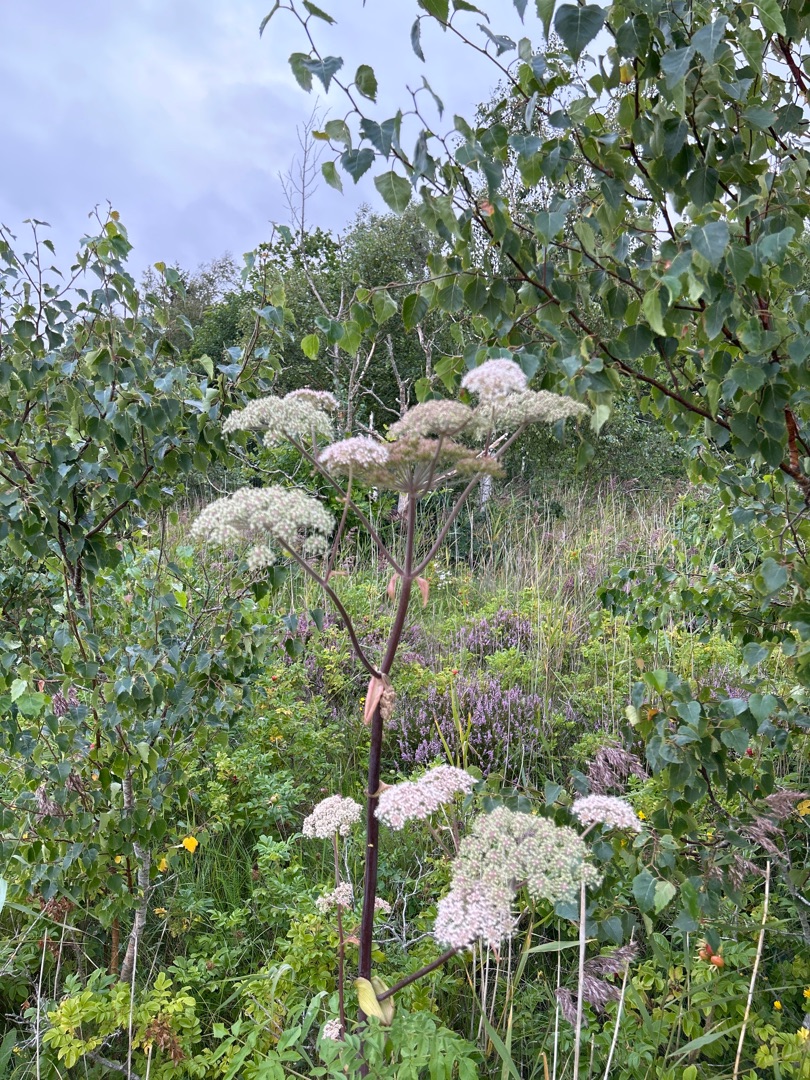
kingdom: Plantae
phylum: Tracheophyta
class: Magnoliopsida
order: Apiales
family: Apiaceae
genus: Angelica
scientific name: Angelica sylvestris
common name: Angelik
